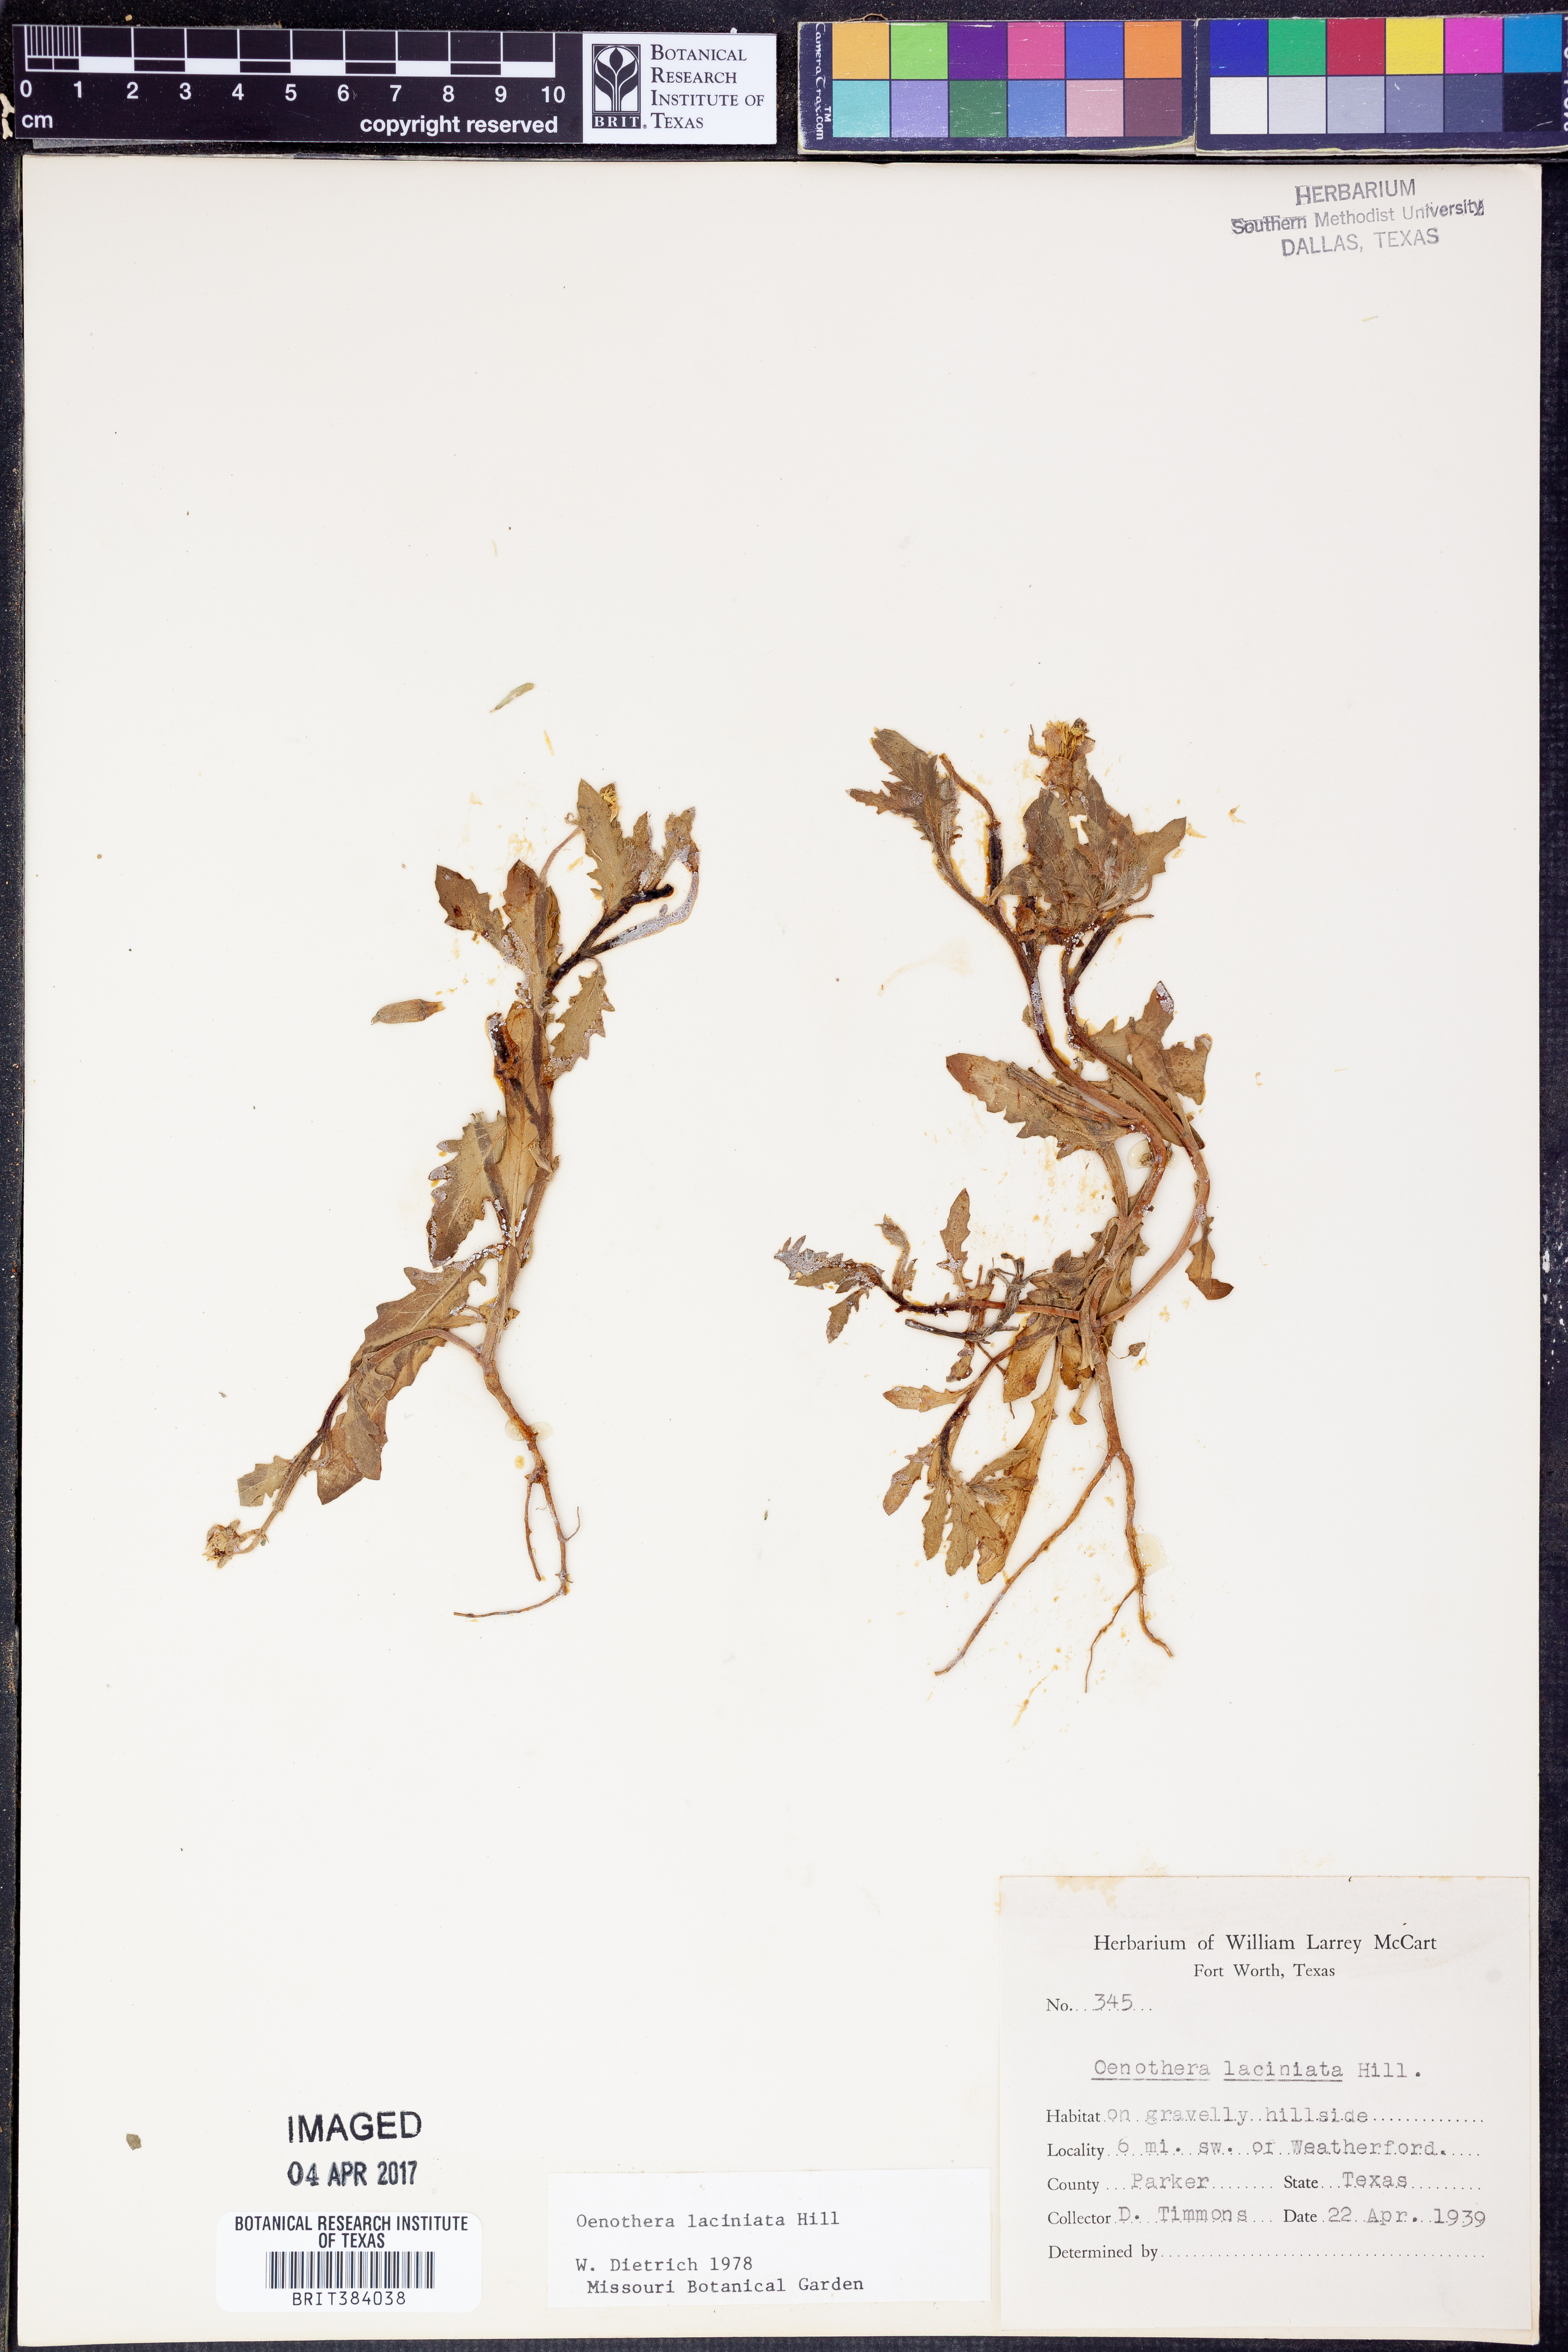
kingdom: Plantae
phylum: Tracheophyta
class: Magnoliopsida
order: Myrtales
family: Onagraceae
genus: Oenothera
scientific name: Oenothera laciniata
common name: Cut-leaved evening-primrose
